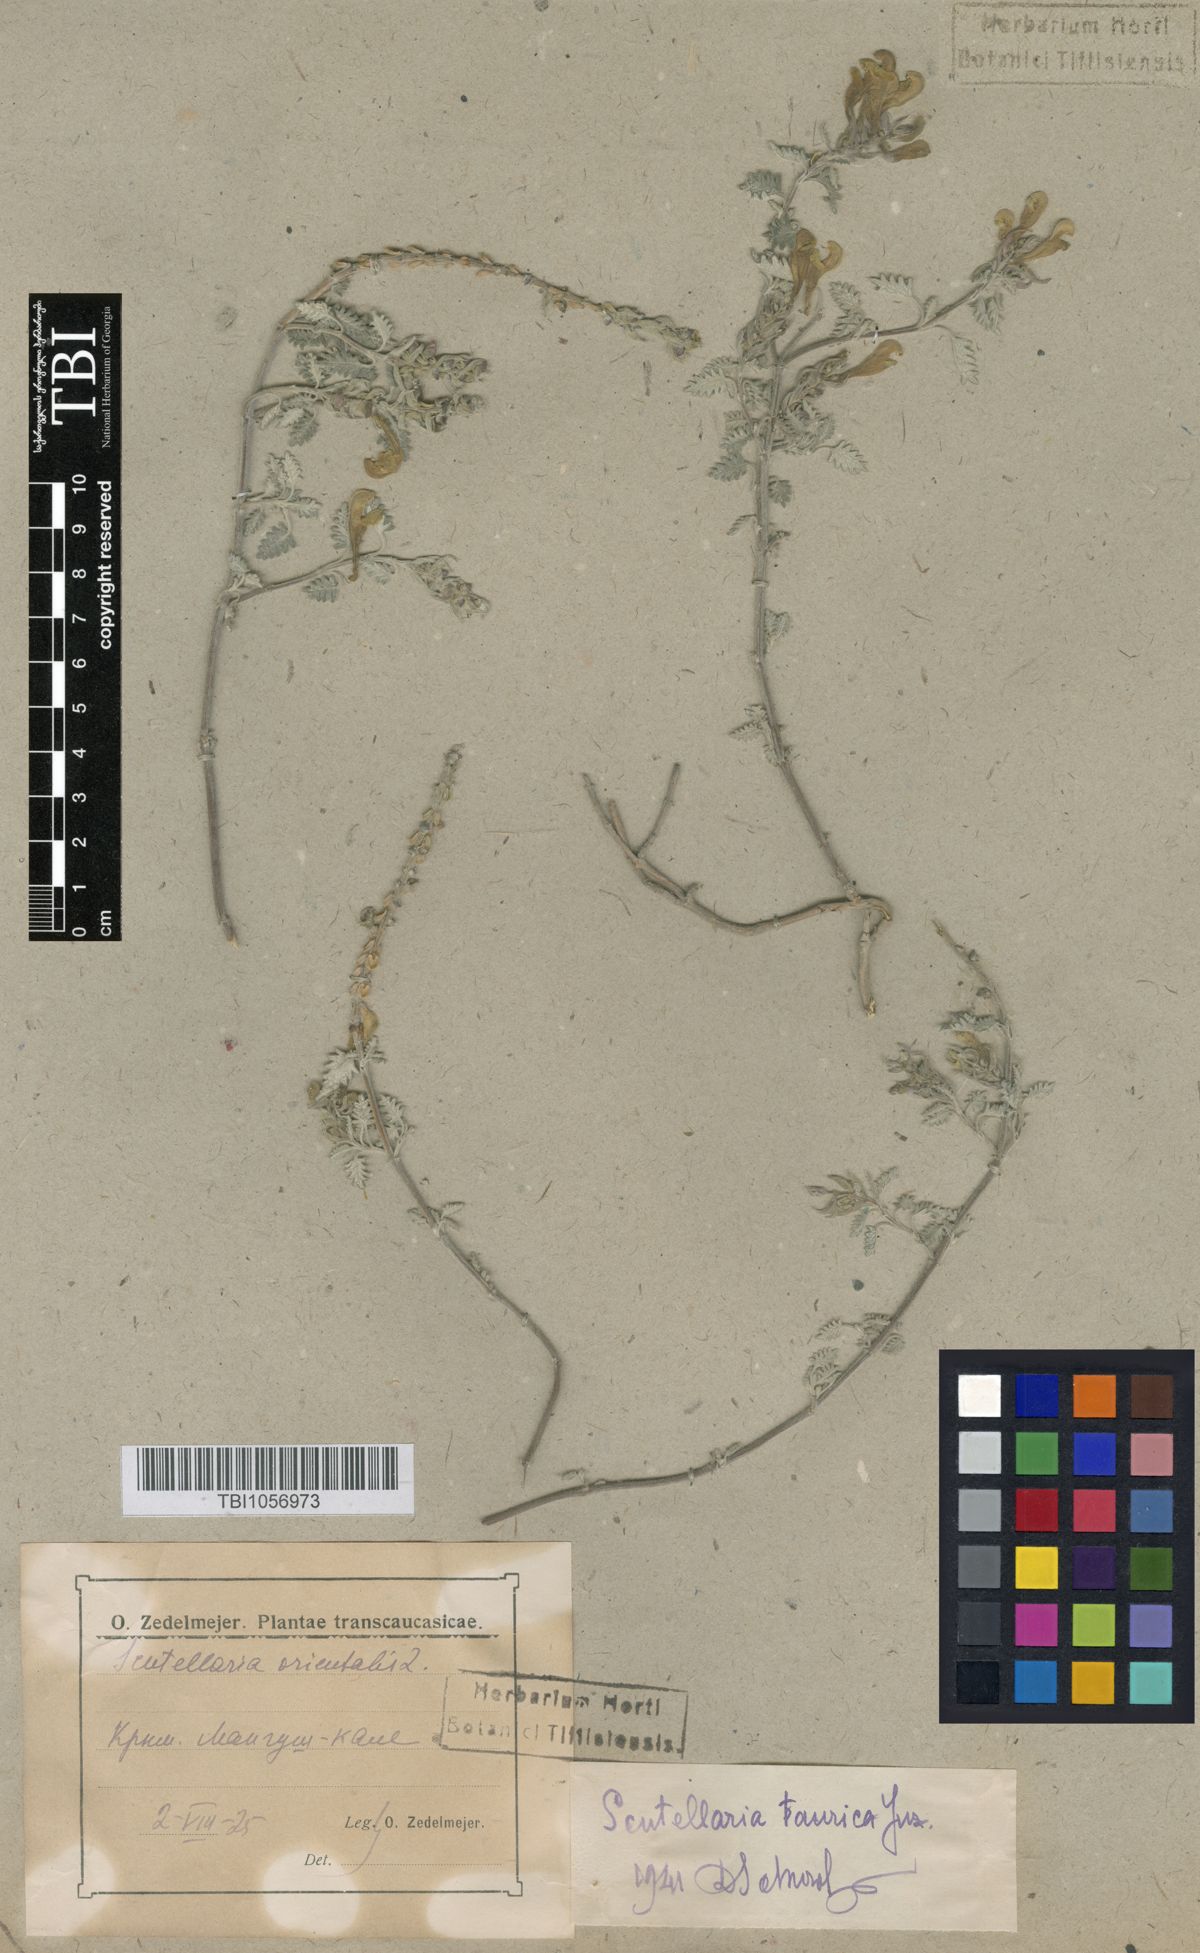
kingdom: Plantae
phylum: Tracheophyta
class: Magnoliopsida
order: Lamiales
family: Lamiaceae
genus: Scutellaria
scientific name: Scutellaria orientalis
